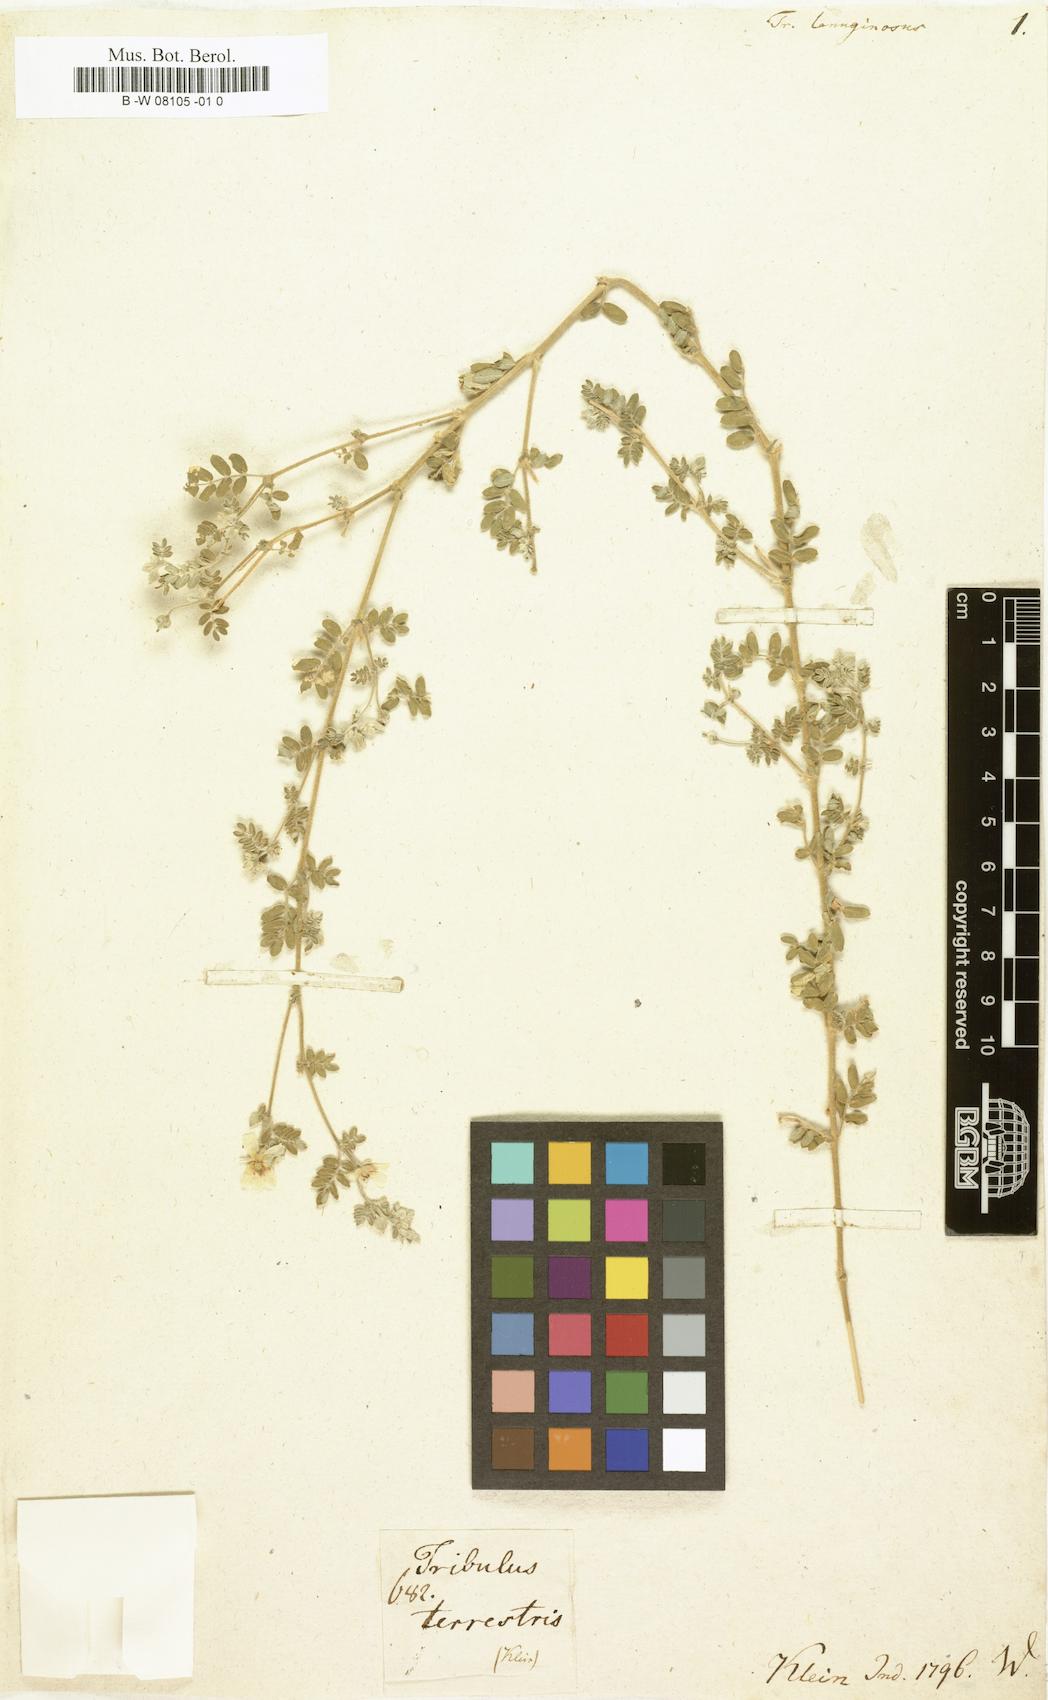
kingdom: Plantae
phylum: Tracheophyta
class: Magnoliopsida
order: Zygophyllales
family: Zygophyllaceae
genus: Tribulus
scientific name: Tribulus terrestris
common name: Puncturevine
